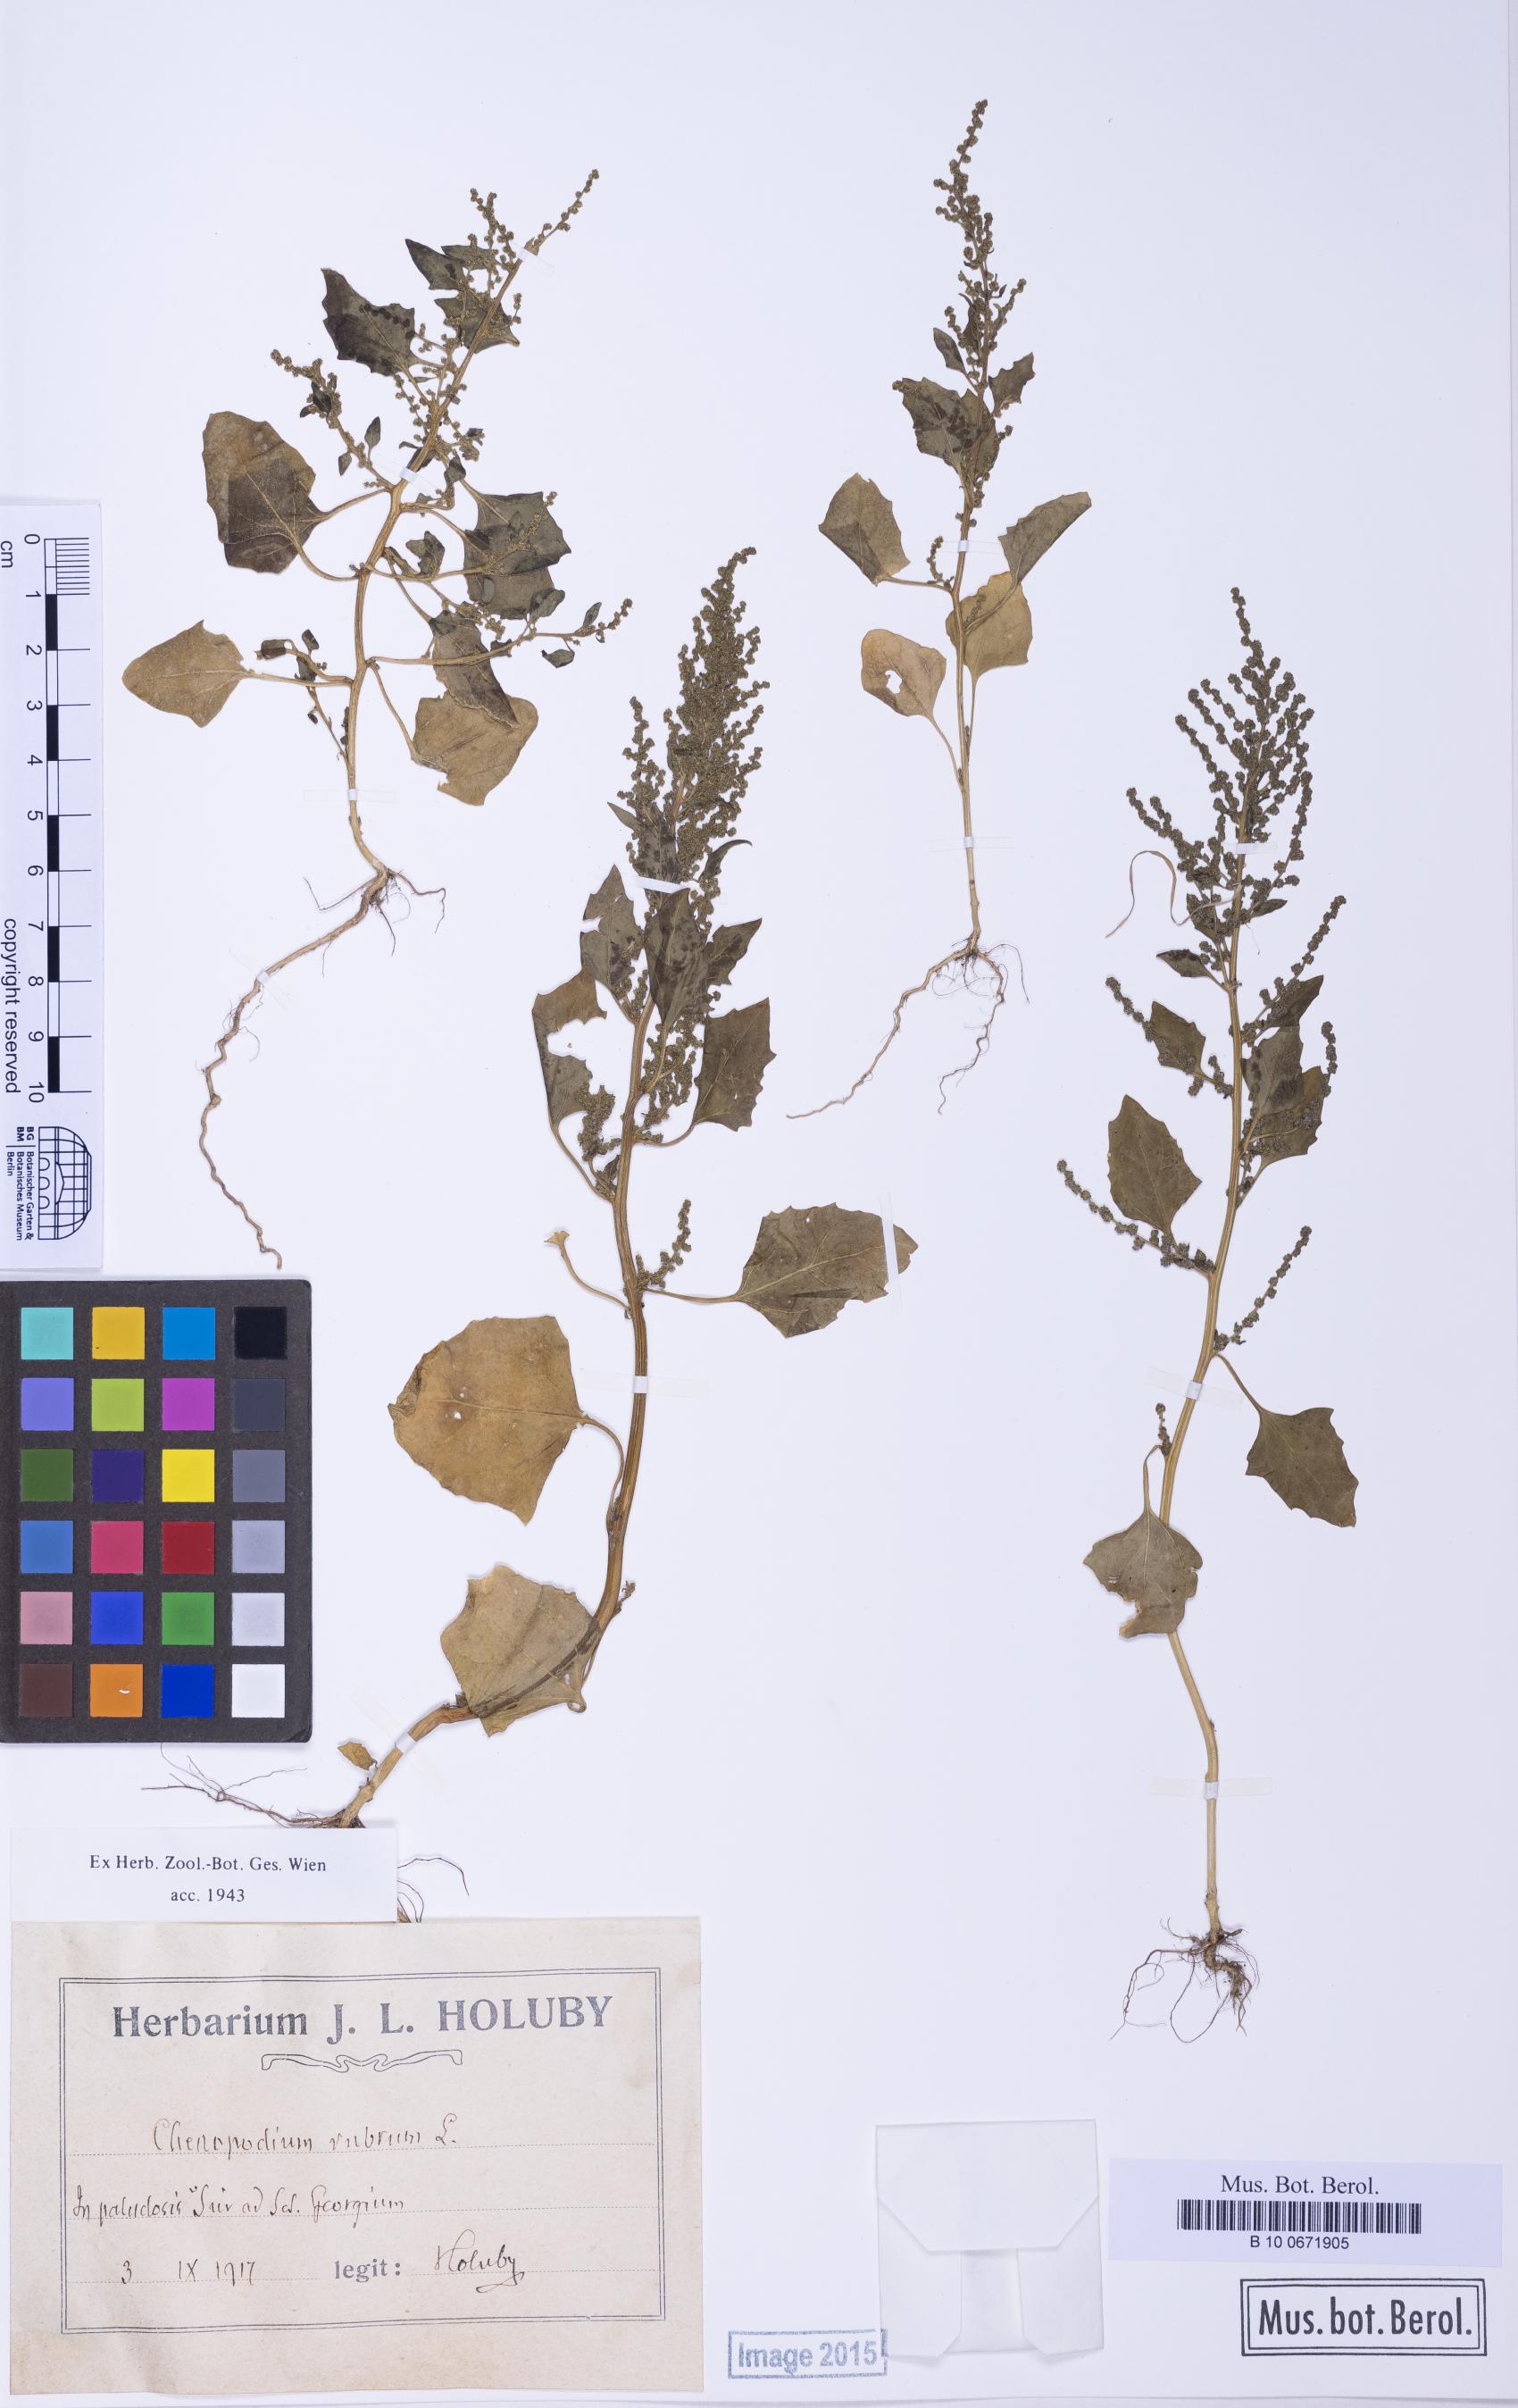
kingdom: Plantae
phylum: Tracheophyta
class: Magnoliopsida
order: Caryophyllales
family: Amaranthaceae
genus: Oxybasis
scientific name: Oxybasis chenopodioides
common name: Saltmarsh goosefoot
